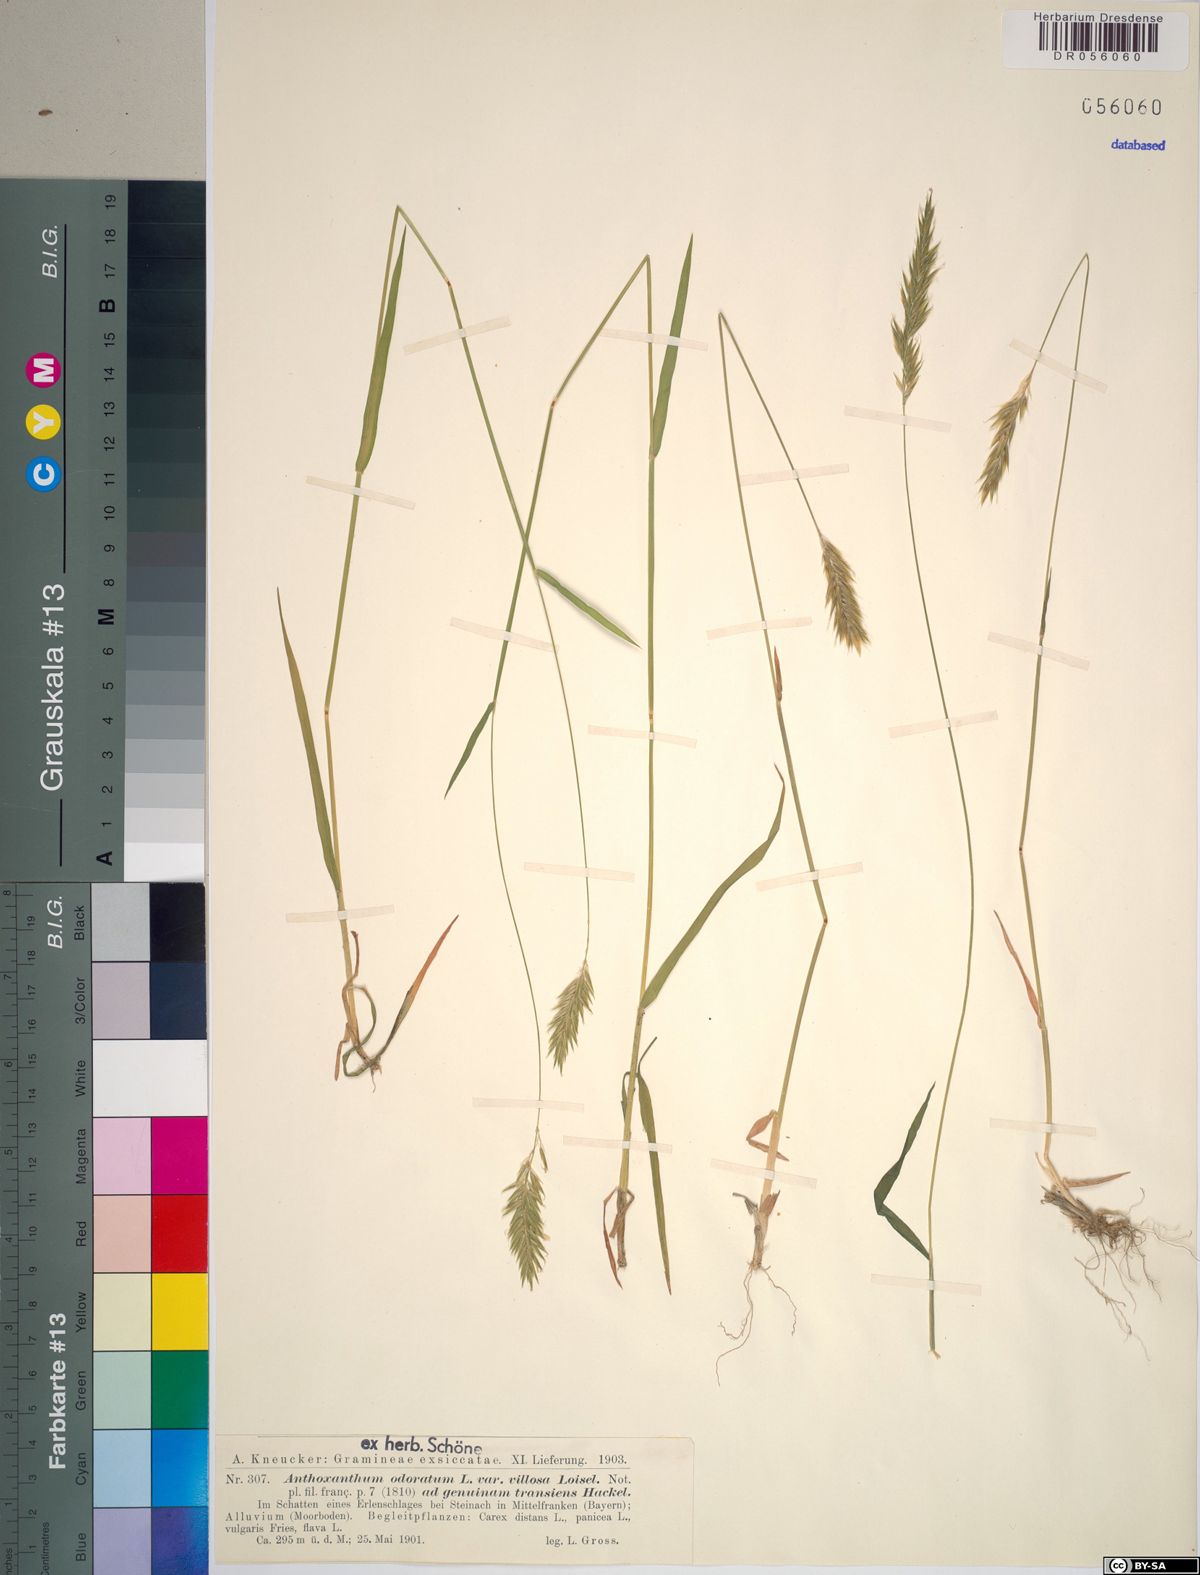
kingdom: Plantae
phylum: Tracheophyta
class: Liliopsida
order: Poales
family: Poaceae
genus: Anthoxanthum
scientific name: Anthoxanthum odoratum
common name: Sweet vernalgrass
